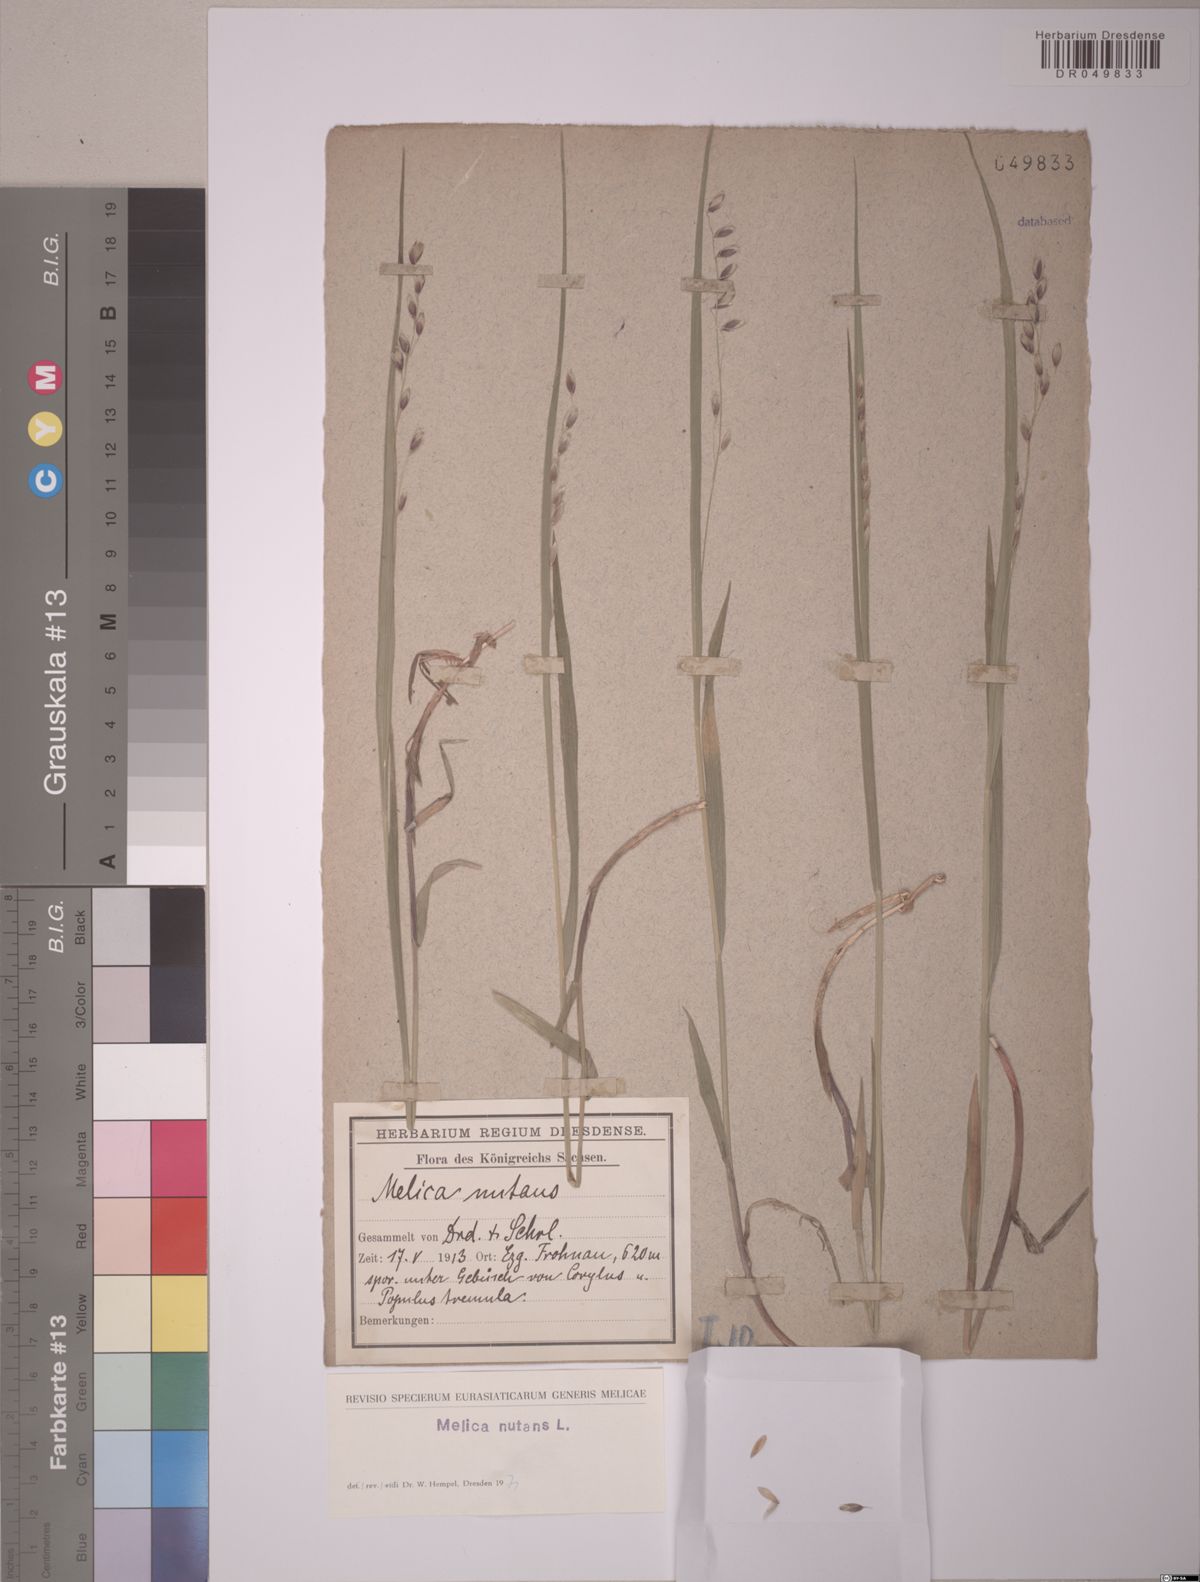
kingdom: Plantae
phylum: Tracheophyta
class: Liliopsida
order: Poales
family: Poaceae
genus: Melica
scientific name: Melica nutans
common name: Mountain melick
